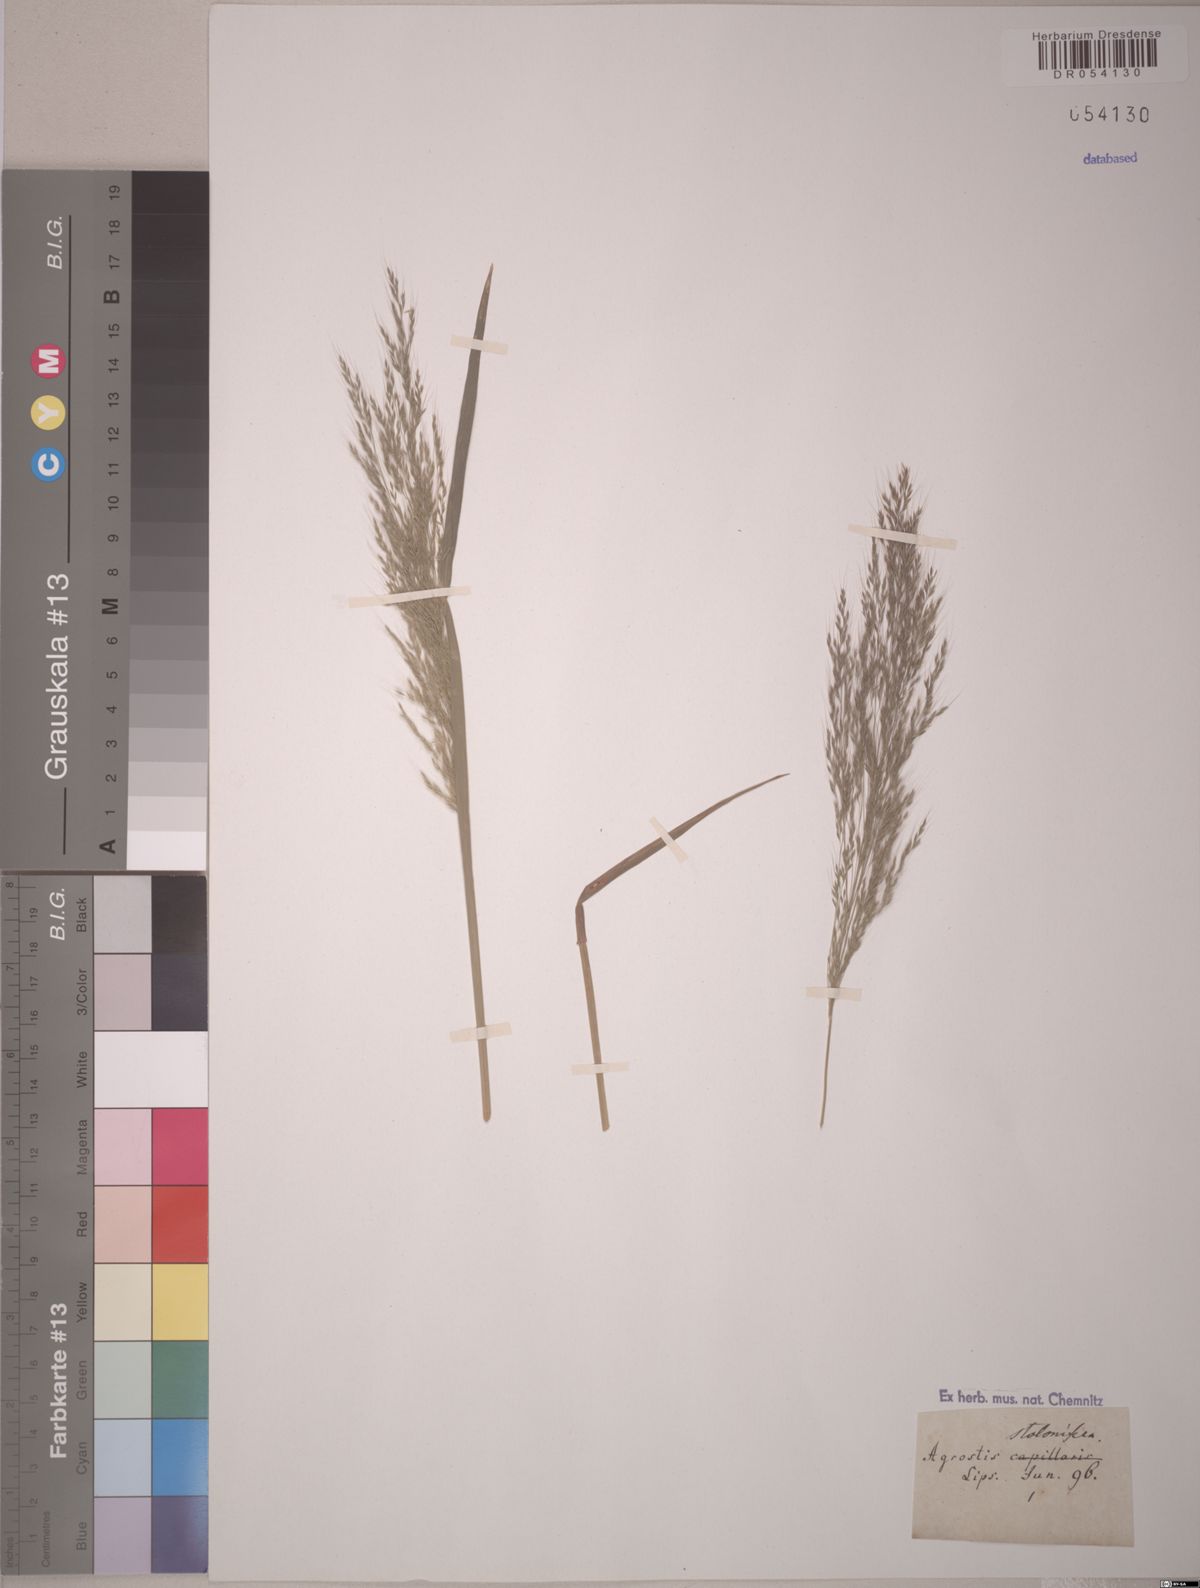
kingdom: Plantae
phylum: Tracheophyta
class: Liliopsida
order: Poales
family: Poaceae
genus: Agrostis
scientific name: Agrostis stolonifera
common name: Creeping bentgrass
